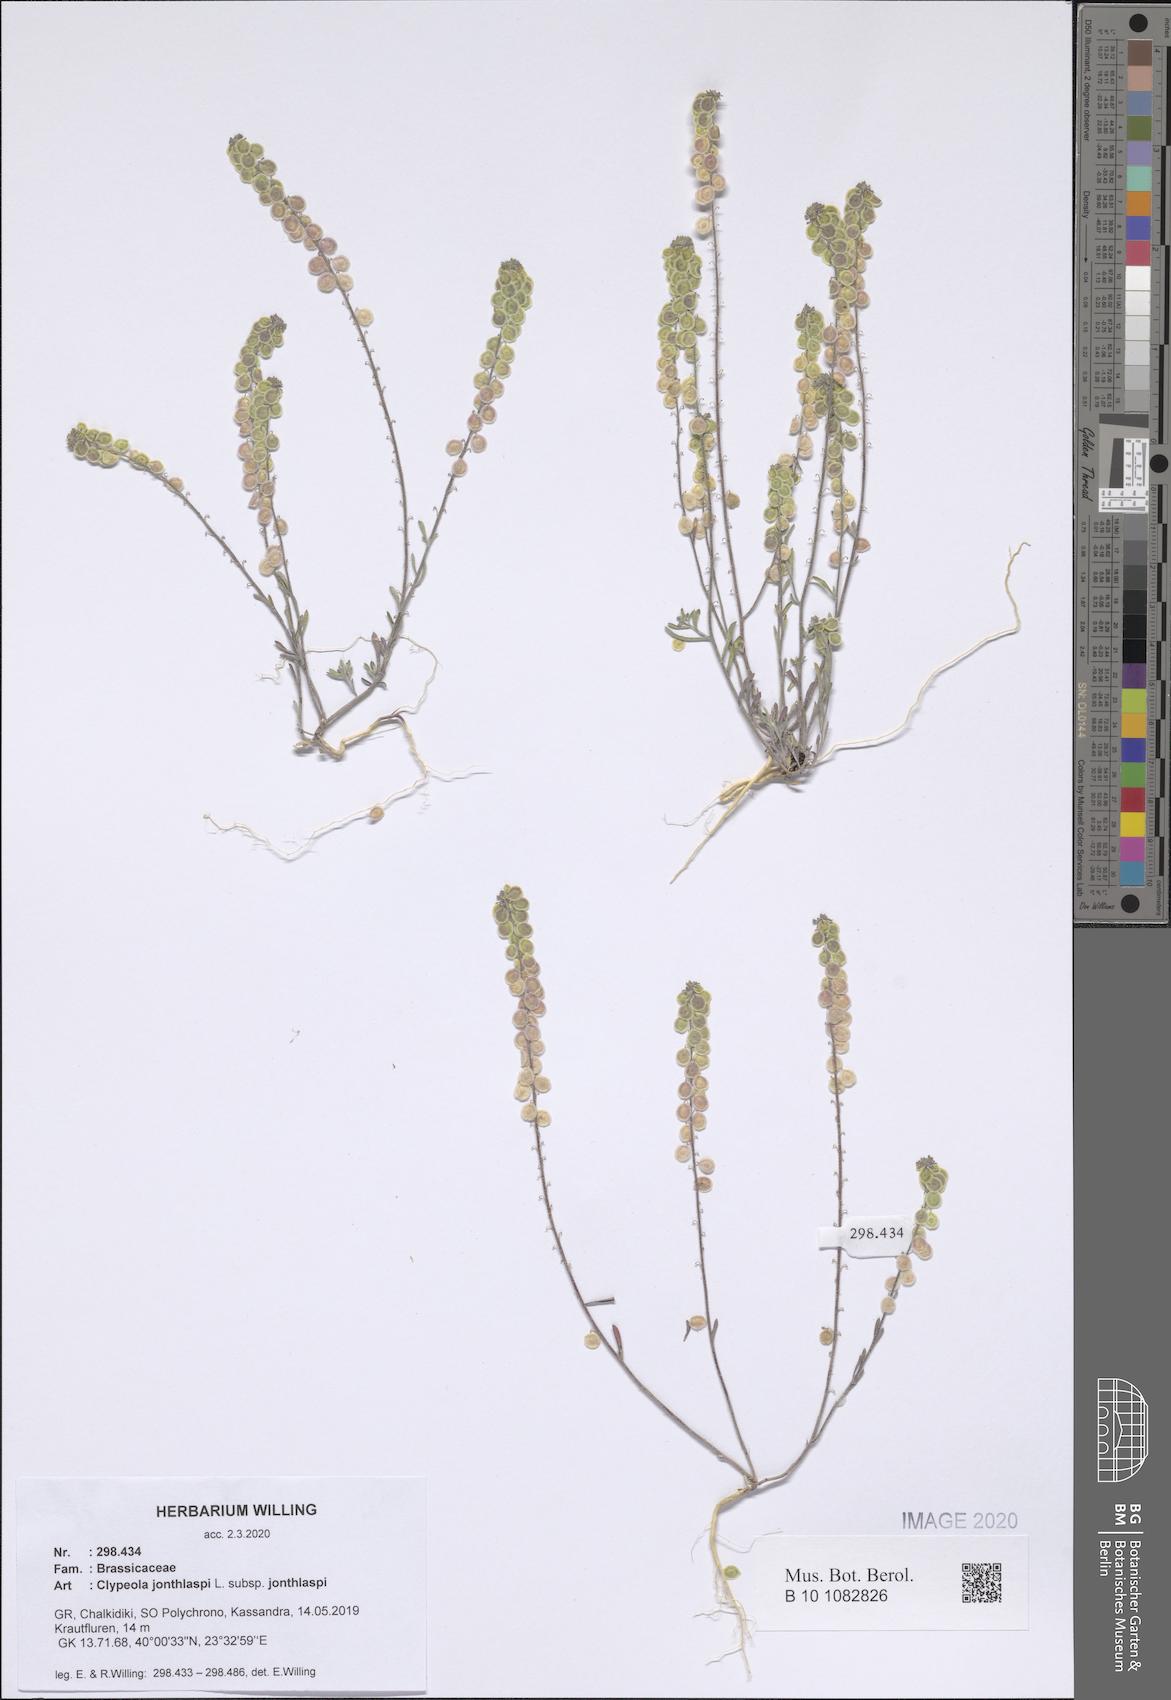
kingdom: Plantae
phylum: Tracheophyta
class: Magnoliopsida
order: Brassicales
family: Brassicaceae
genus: Clypeola
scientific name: Clypeola jonthlaspi
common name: Disk cress
